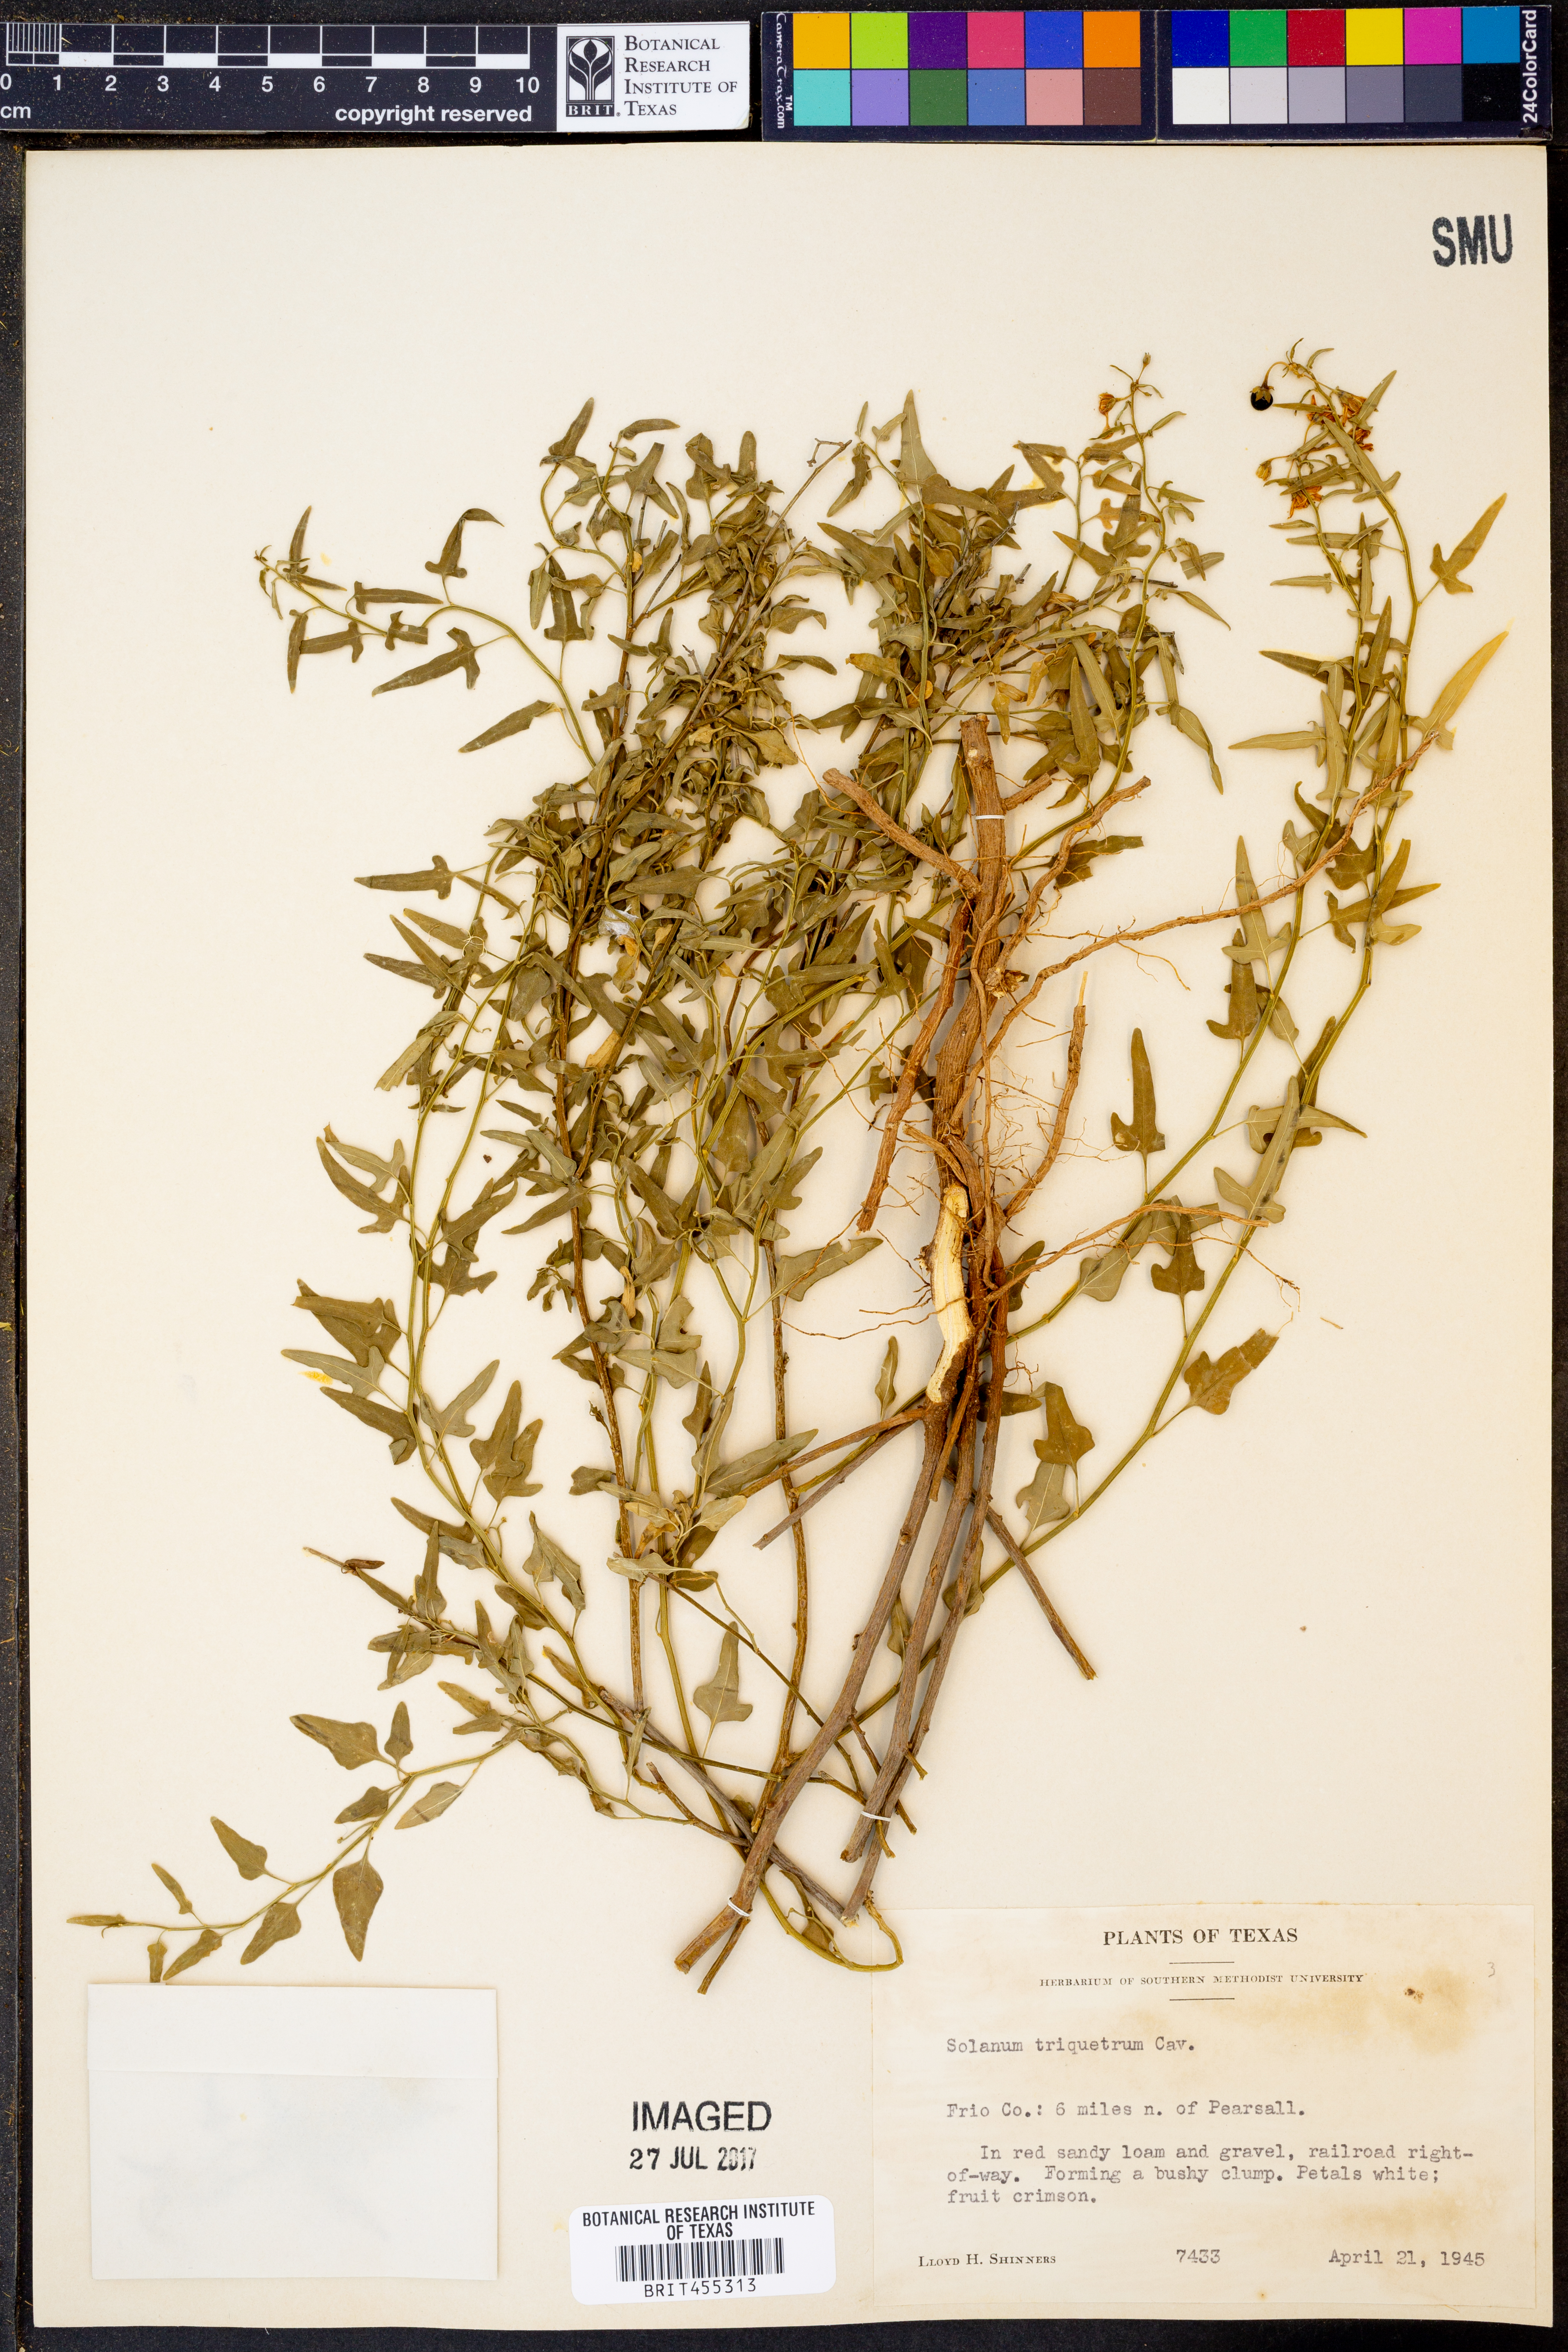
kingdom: Plantae
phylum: Tracheophyta
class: Magnoliopsida
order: Solanales
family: Solanaceae
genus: Solanum
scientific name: Solanum triquetrum
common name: Texas nightshade
